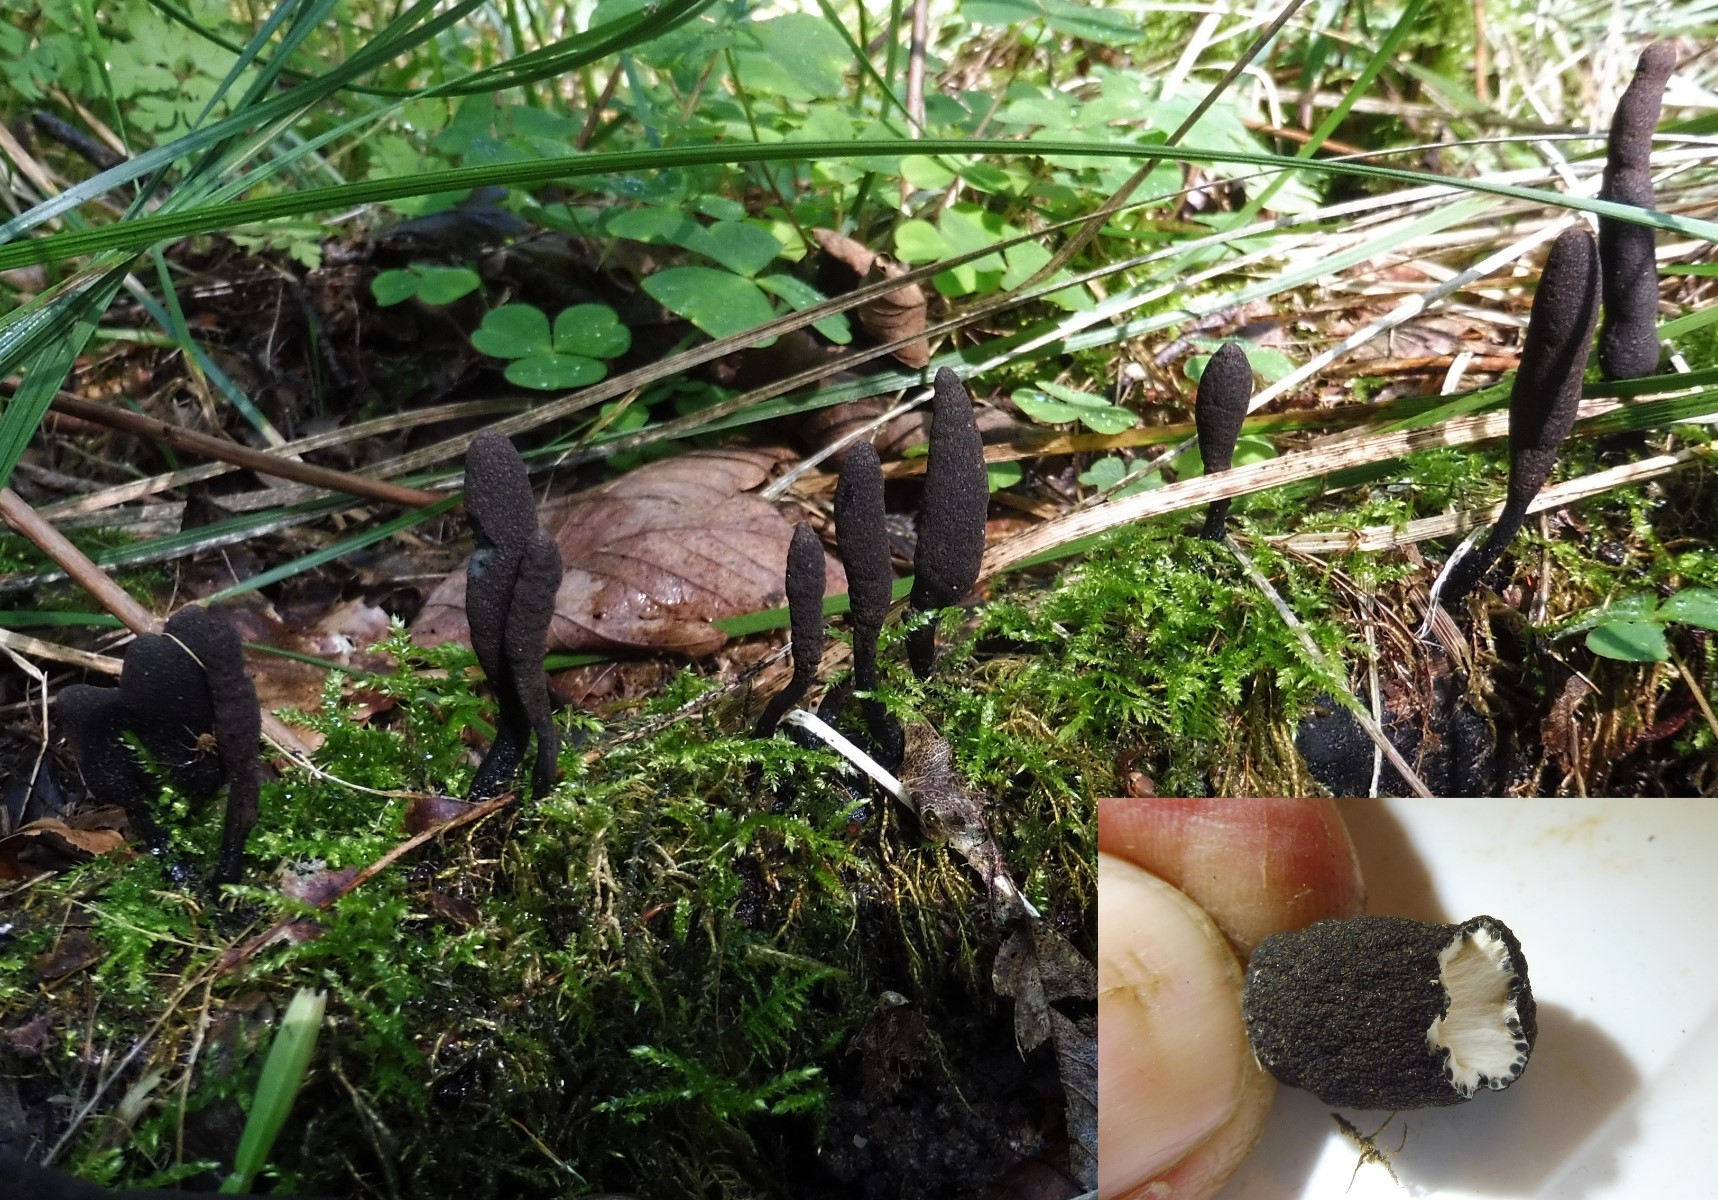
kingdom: Fungi
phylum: Ascomycota
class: Sordariomycetes
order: Xylariales
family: Xylariaceae
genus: Xylaria
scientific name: Xylaria longipes
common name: slank stødsvamp
